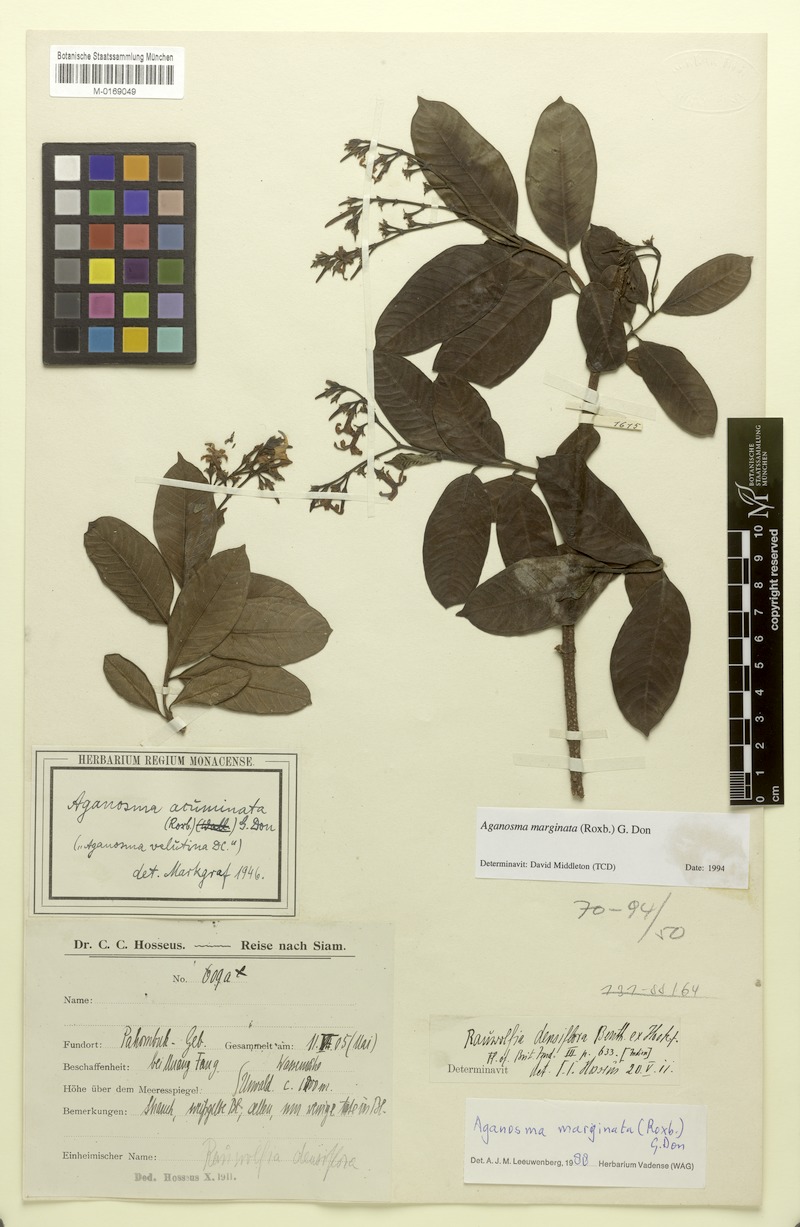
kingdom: Plantae
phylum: Tracheophyta
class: Magnoliopsida
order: Gentianales
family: Apocynaceae
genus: Amphineurion
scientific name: Amphineurion marginatum
